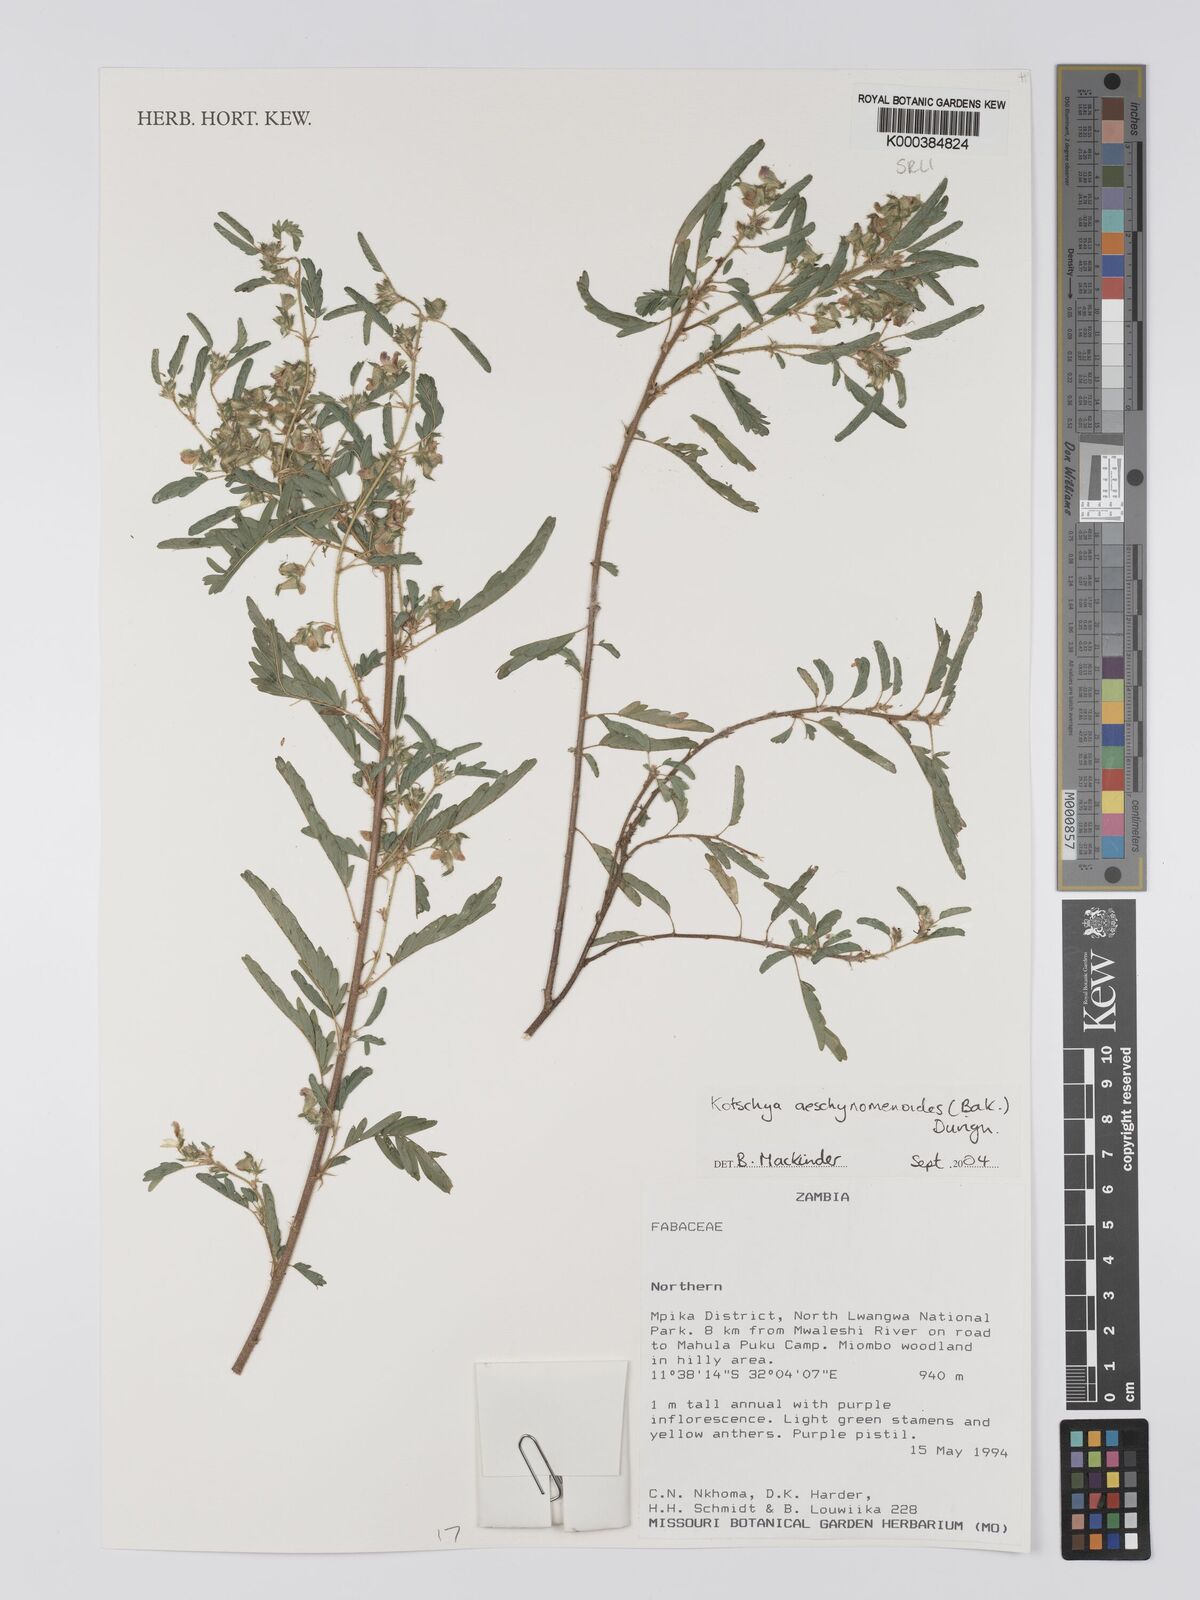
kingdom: Plantae
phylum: Tracheophyta
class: Magnoliopsida
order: Fabales
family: Fabaceae
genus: Kotschya
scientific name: Kotschya aeschynomenoides
